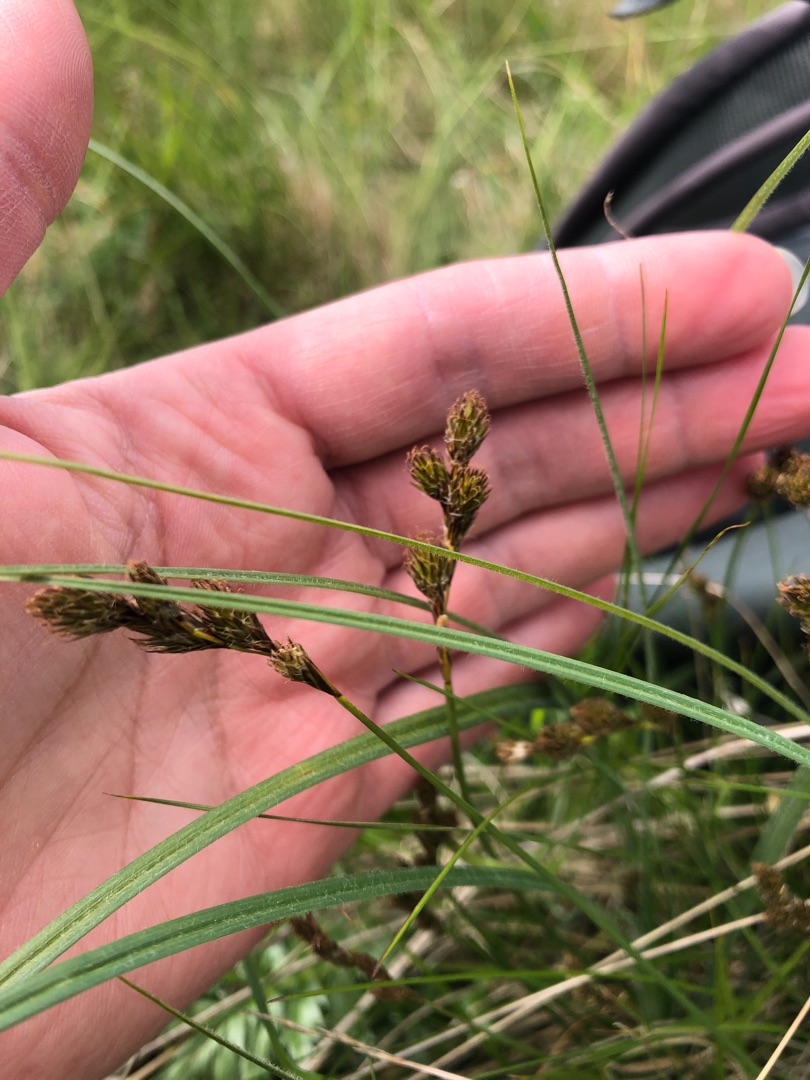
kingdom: Plantae
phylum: Tracheophyta
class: Liliopsida
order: Poales
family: Cyperaceae
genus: Carex
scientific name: Carex leporina
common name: Hare-star
